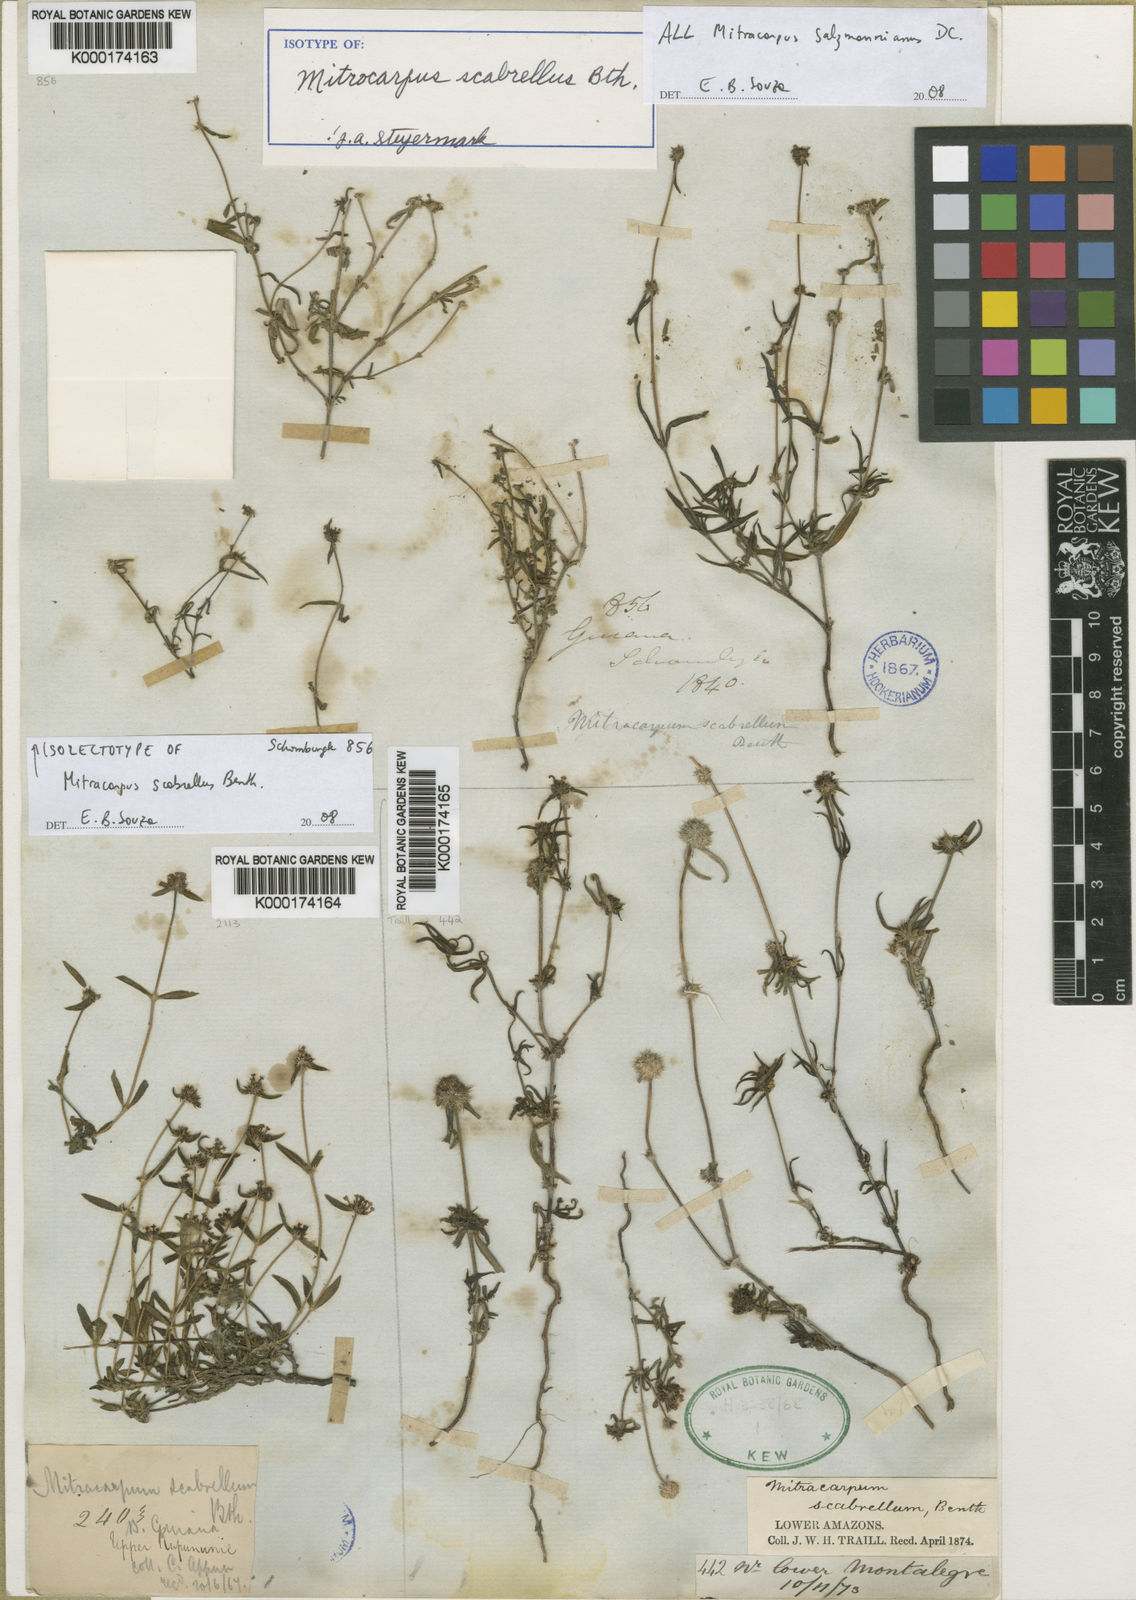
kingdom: Plantae
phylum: Tracheophyta
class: Magnoliopsida
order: Gentianales
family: Rubiaceae
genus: Mitracarpus
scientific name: Mitracarpus salzmannianus
